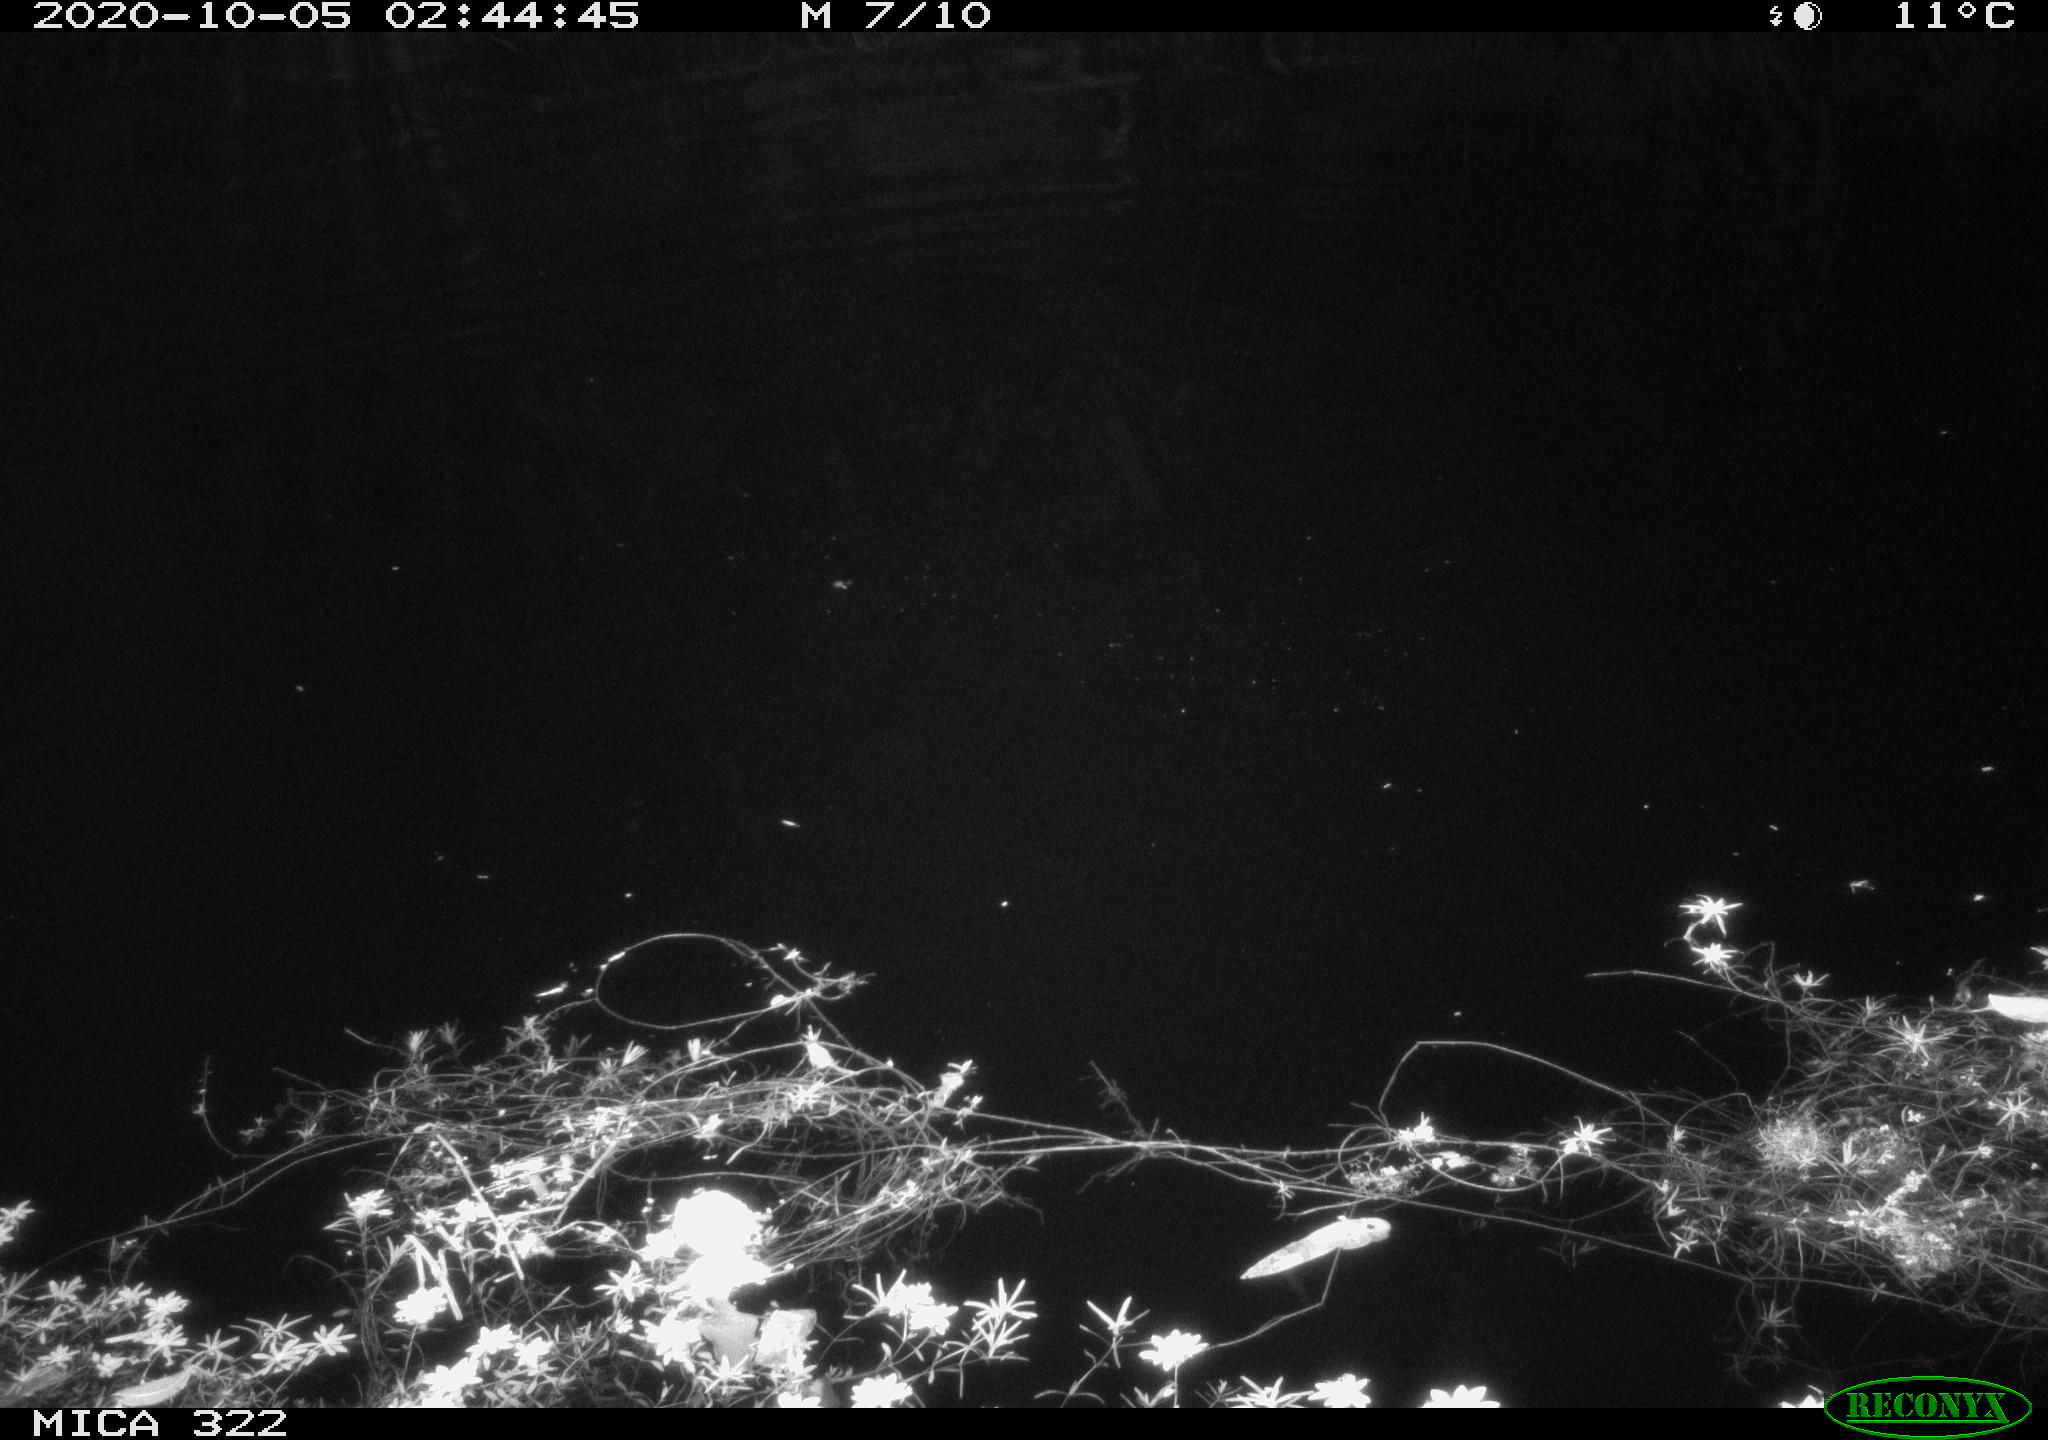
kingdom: Animalia
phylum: Chordata
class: Mammalia
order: Rodentia
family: Muridae
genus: Rattus
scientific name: Rattus norvegicus
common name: Brown rat
